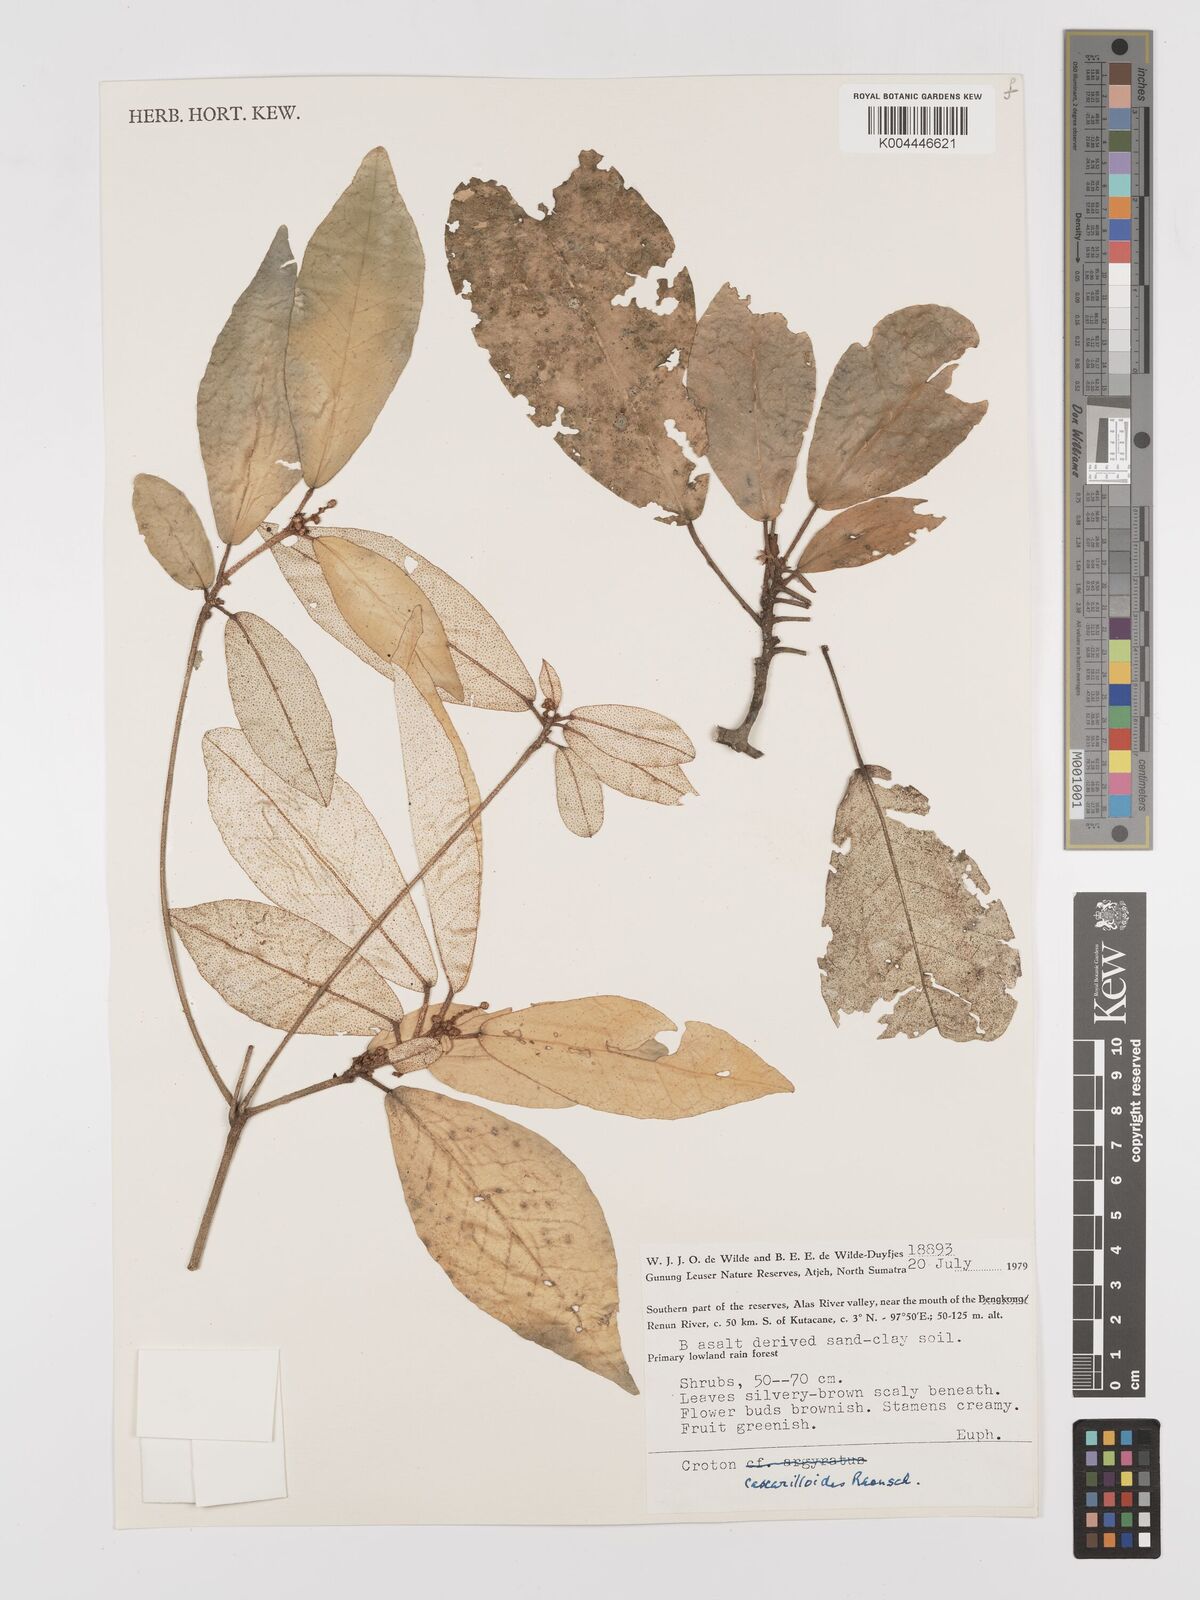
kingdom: Plantae
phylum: Tracheophyta
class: Magnoliopsida
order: Malpighiales
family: Euphorbiaceae
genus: Croton
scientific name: Croton cascarilloides
